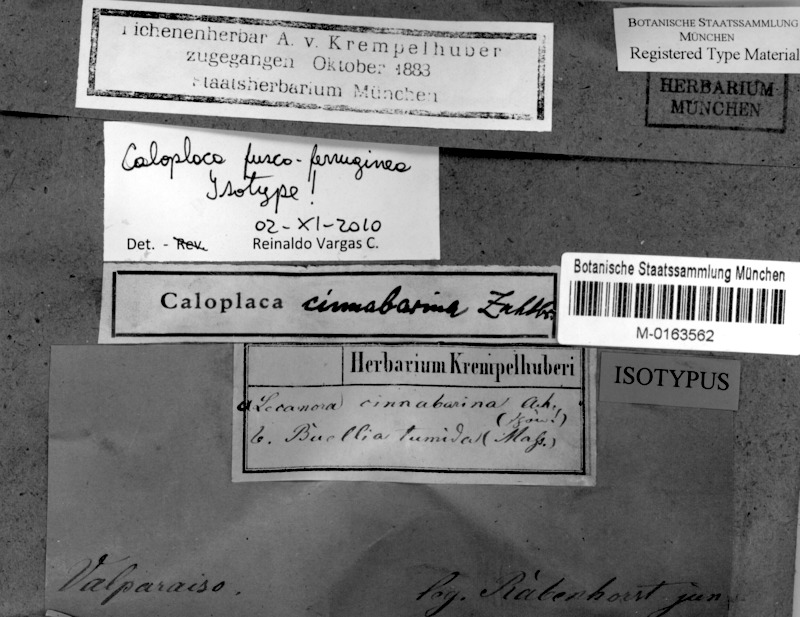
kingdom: Fungi
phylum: Ascomycota
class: Lecanoromycetes
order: Teloschistales
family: Teloschistaceae
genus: Caloplaca
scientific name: Caloplaca
